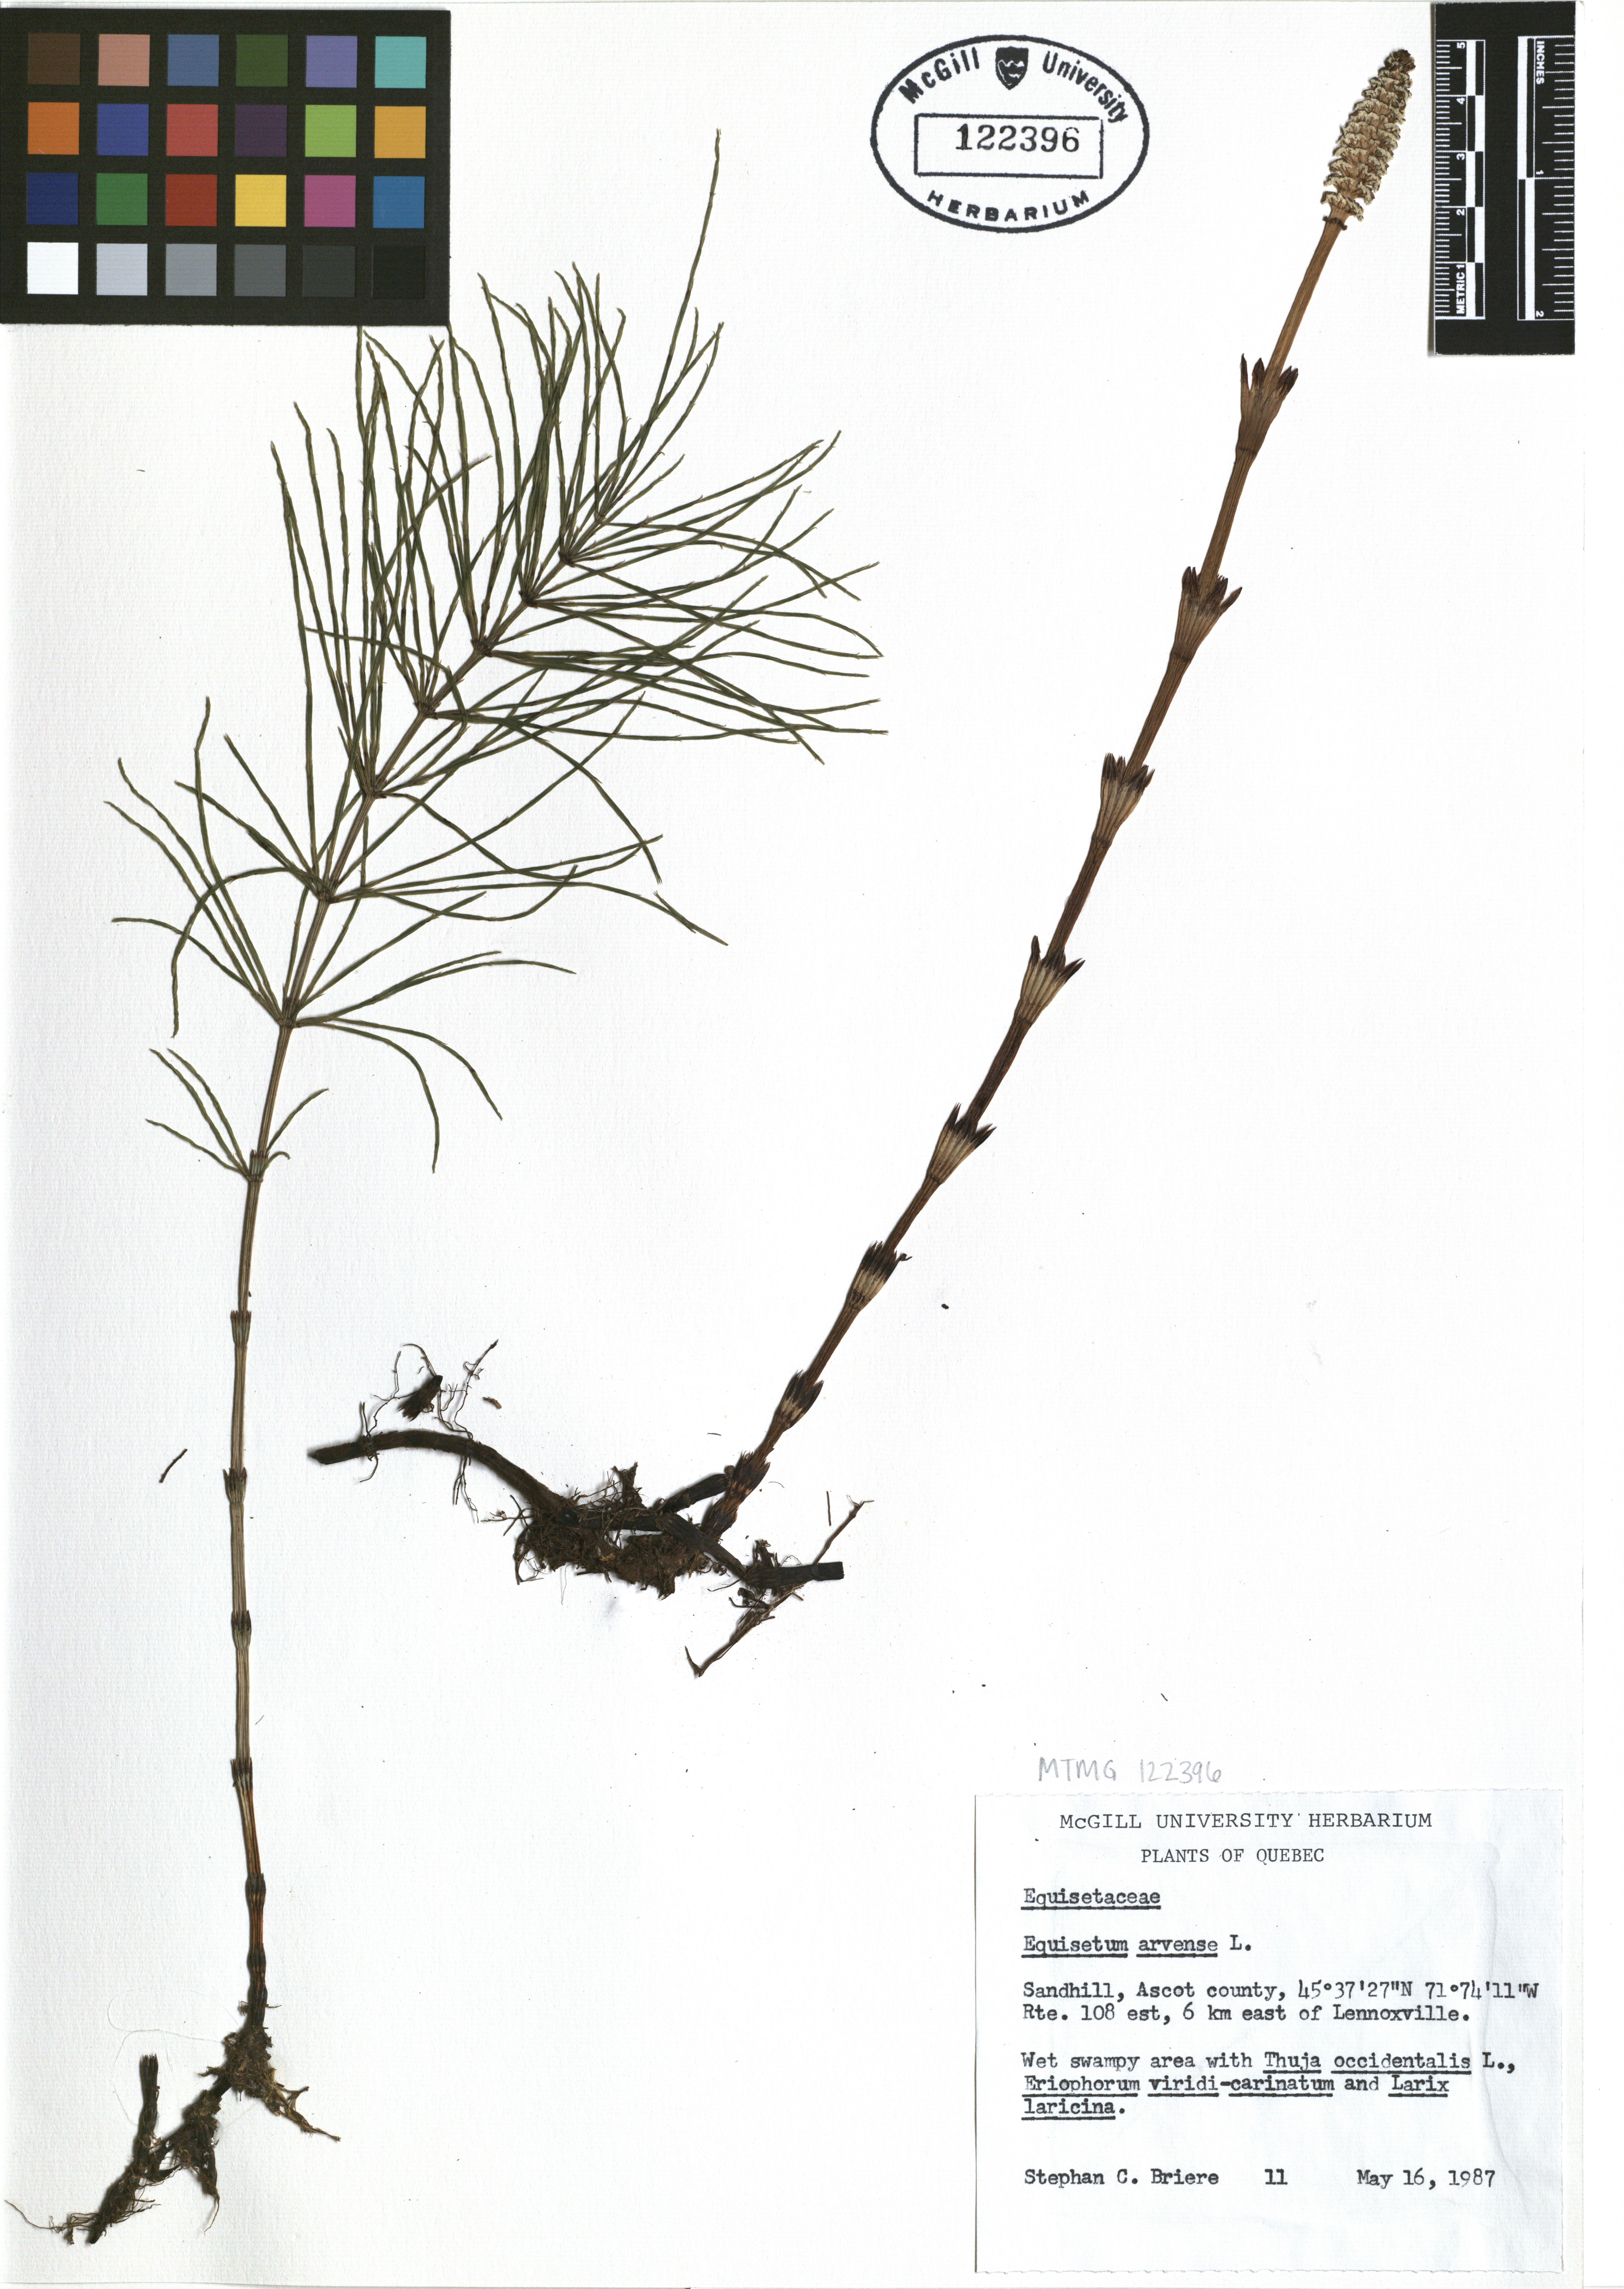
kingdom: Plantae
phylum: Tracheophyta
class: Polypodiopsida
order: Equisetales
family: Equisetaceae
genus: Equisetum
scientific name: Equisetum arvense
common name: Field horsetail
